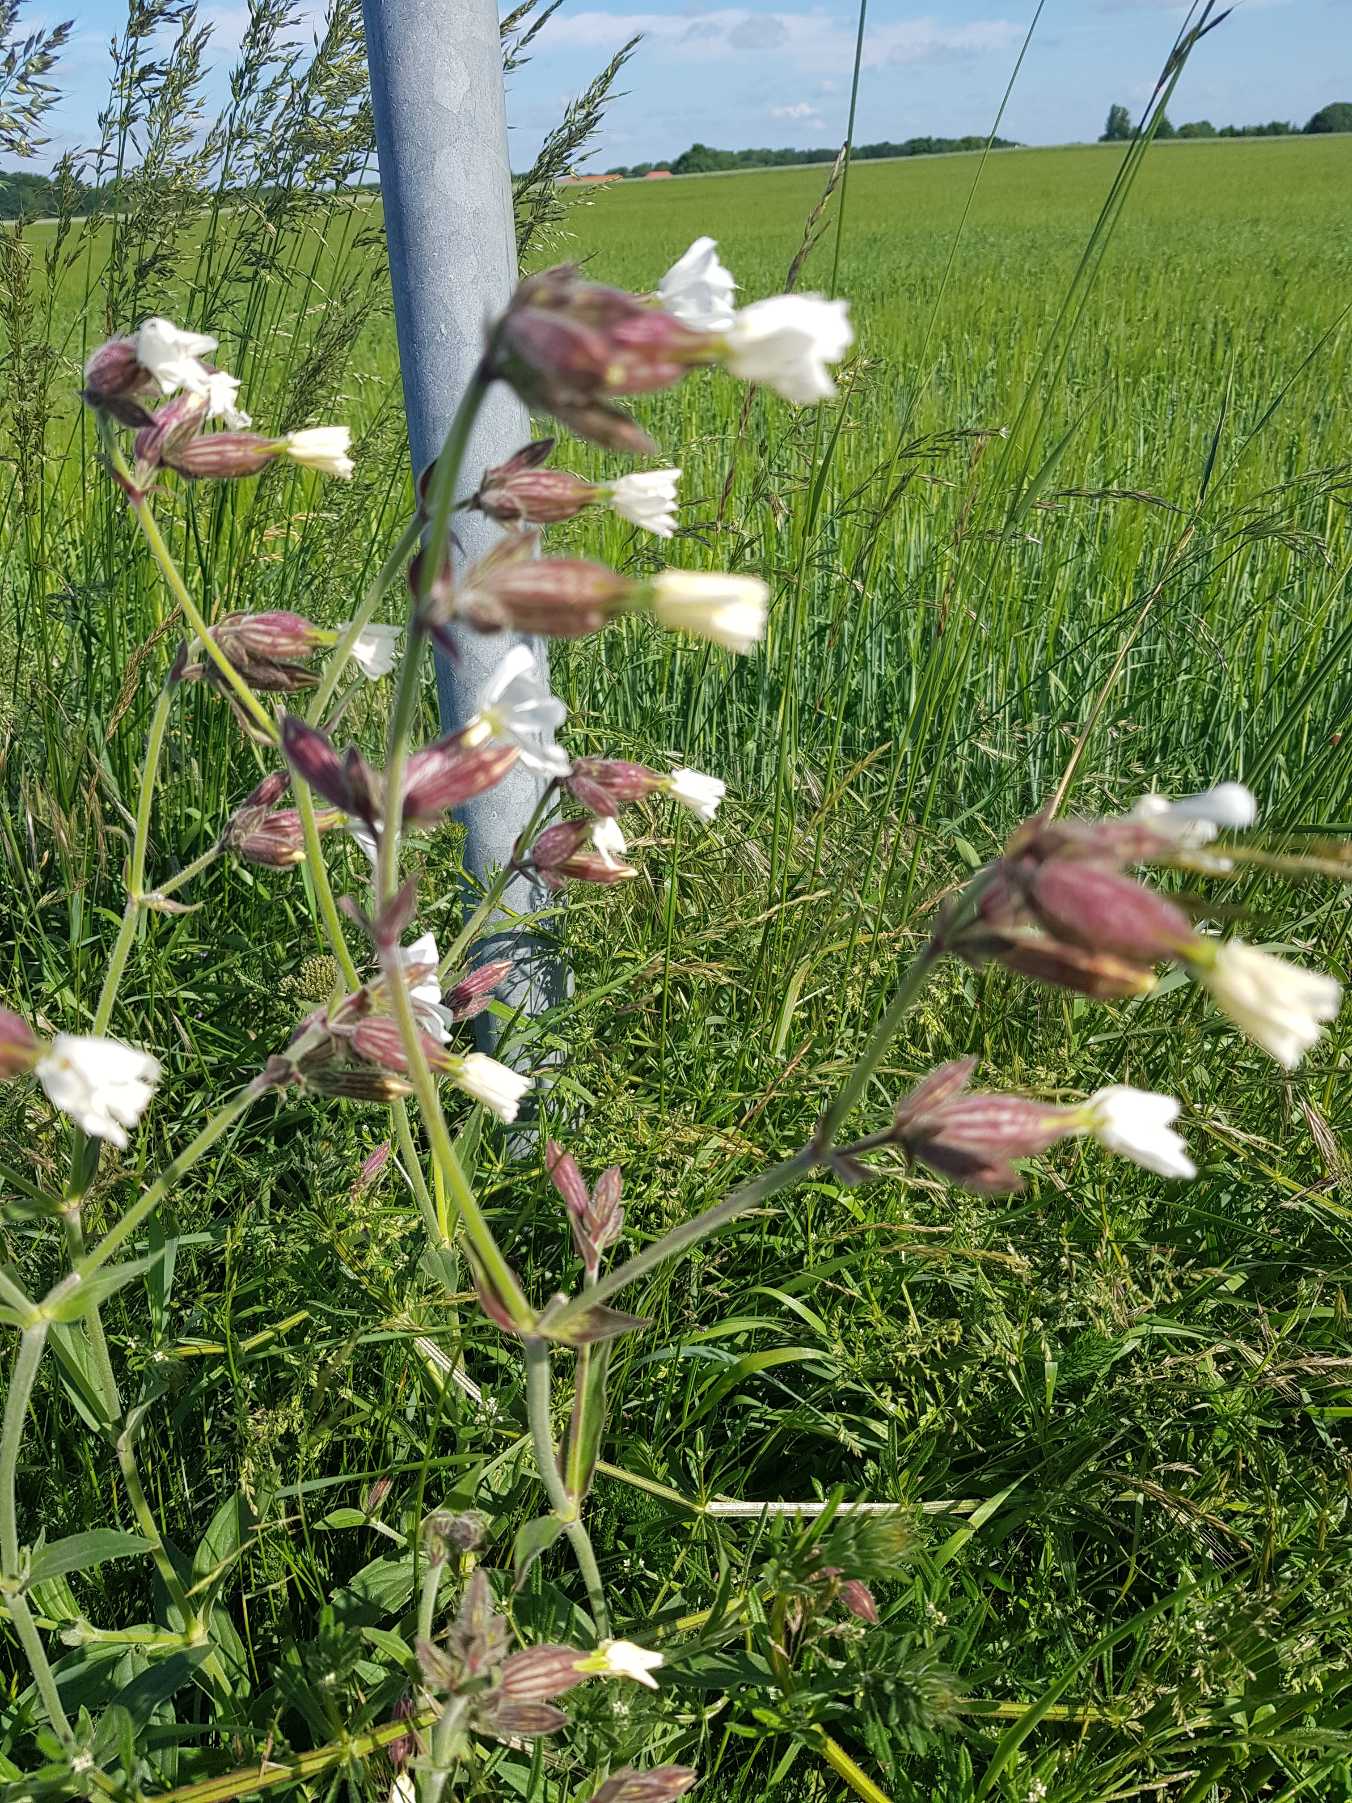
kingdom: Plantae
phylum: Tracheophyta
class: Magnoliopsida
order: Caryophyllales
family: Caryophyllaceae
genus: Silene
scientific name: Silene latifolia
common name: Aftenpragtstjerne
